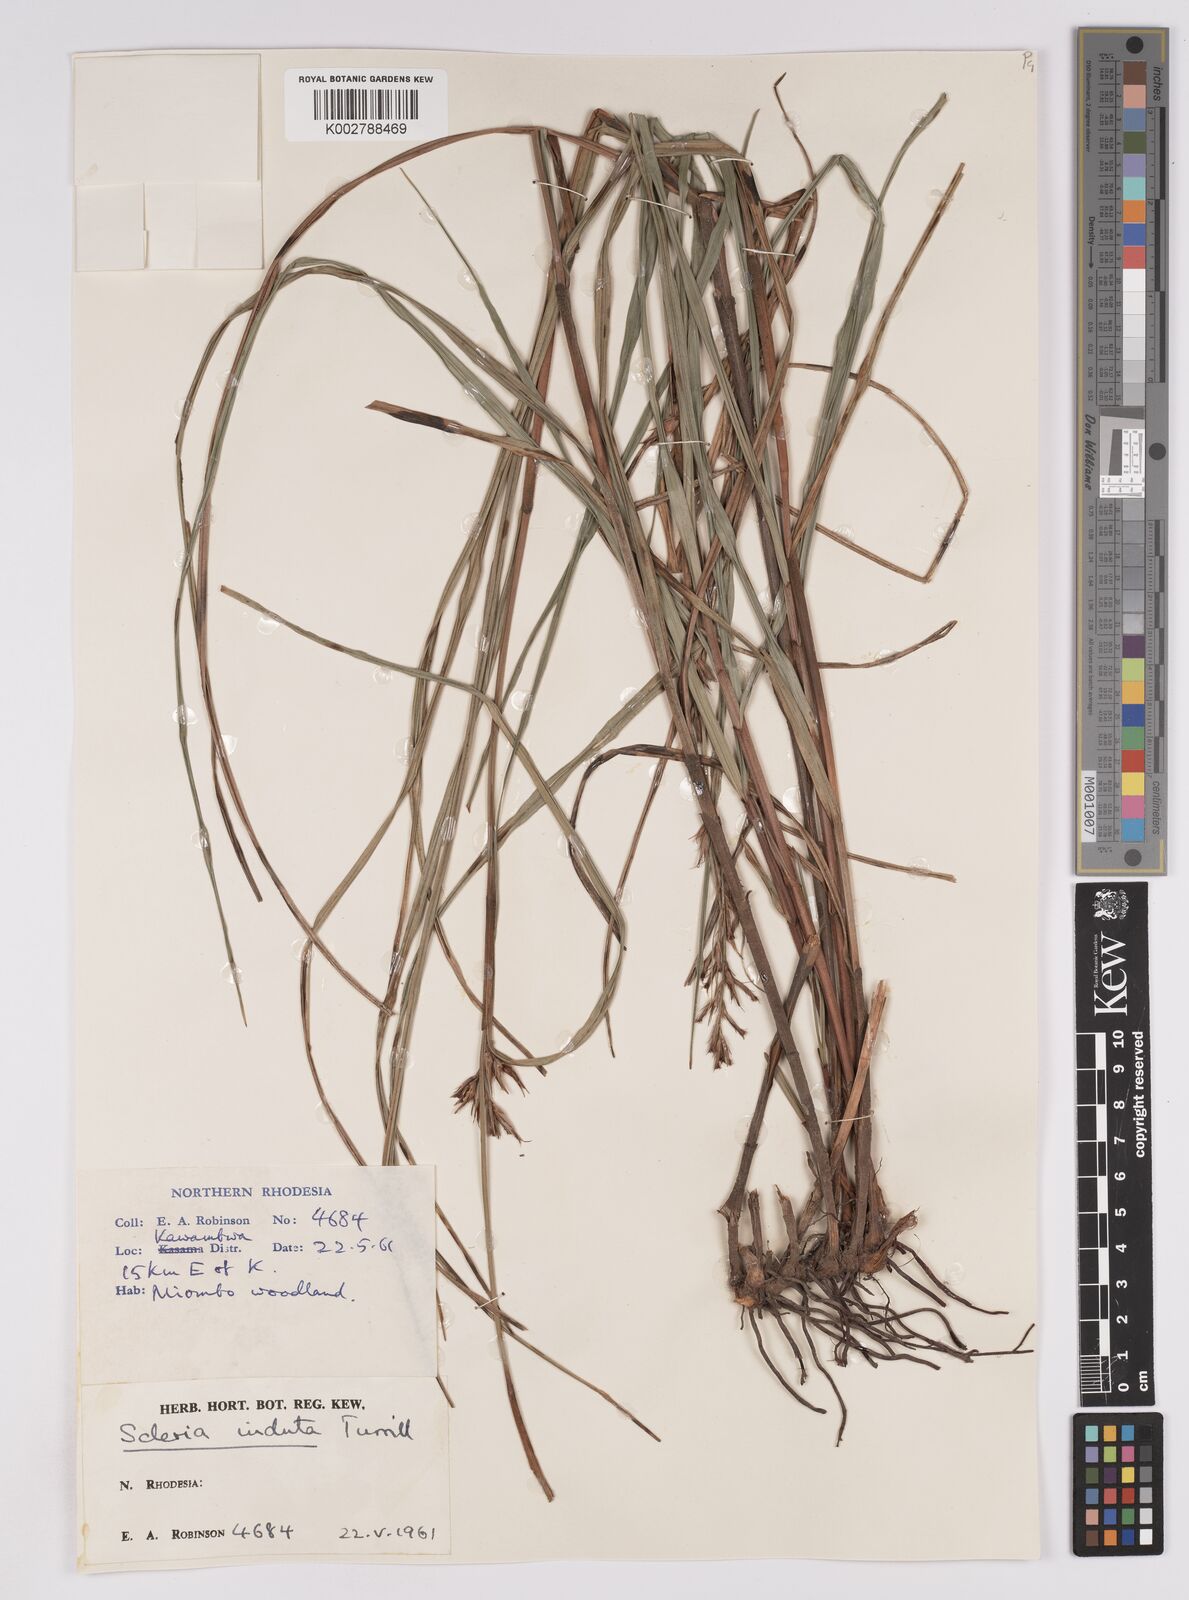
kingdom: Plantae
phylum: Tracheophyta
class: Liliopsida
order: Poales
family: Cyperaceae
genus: Scleria
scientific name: Scleria induta
